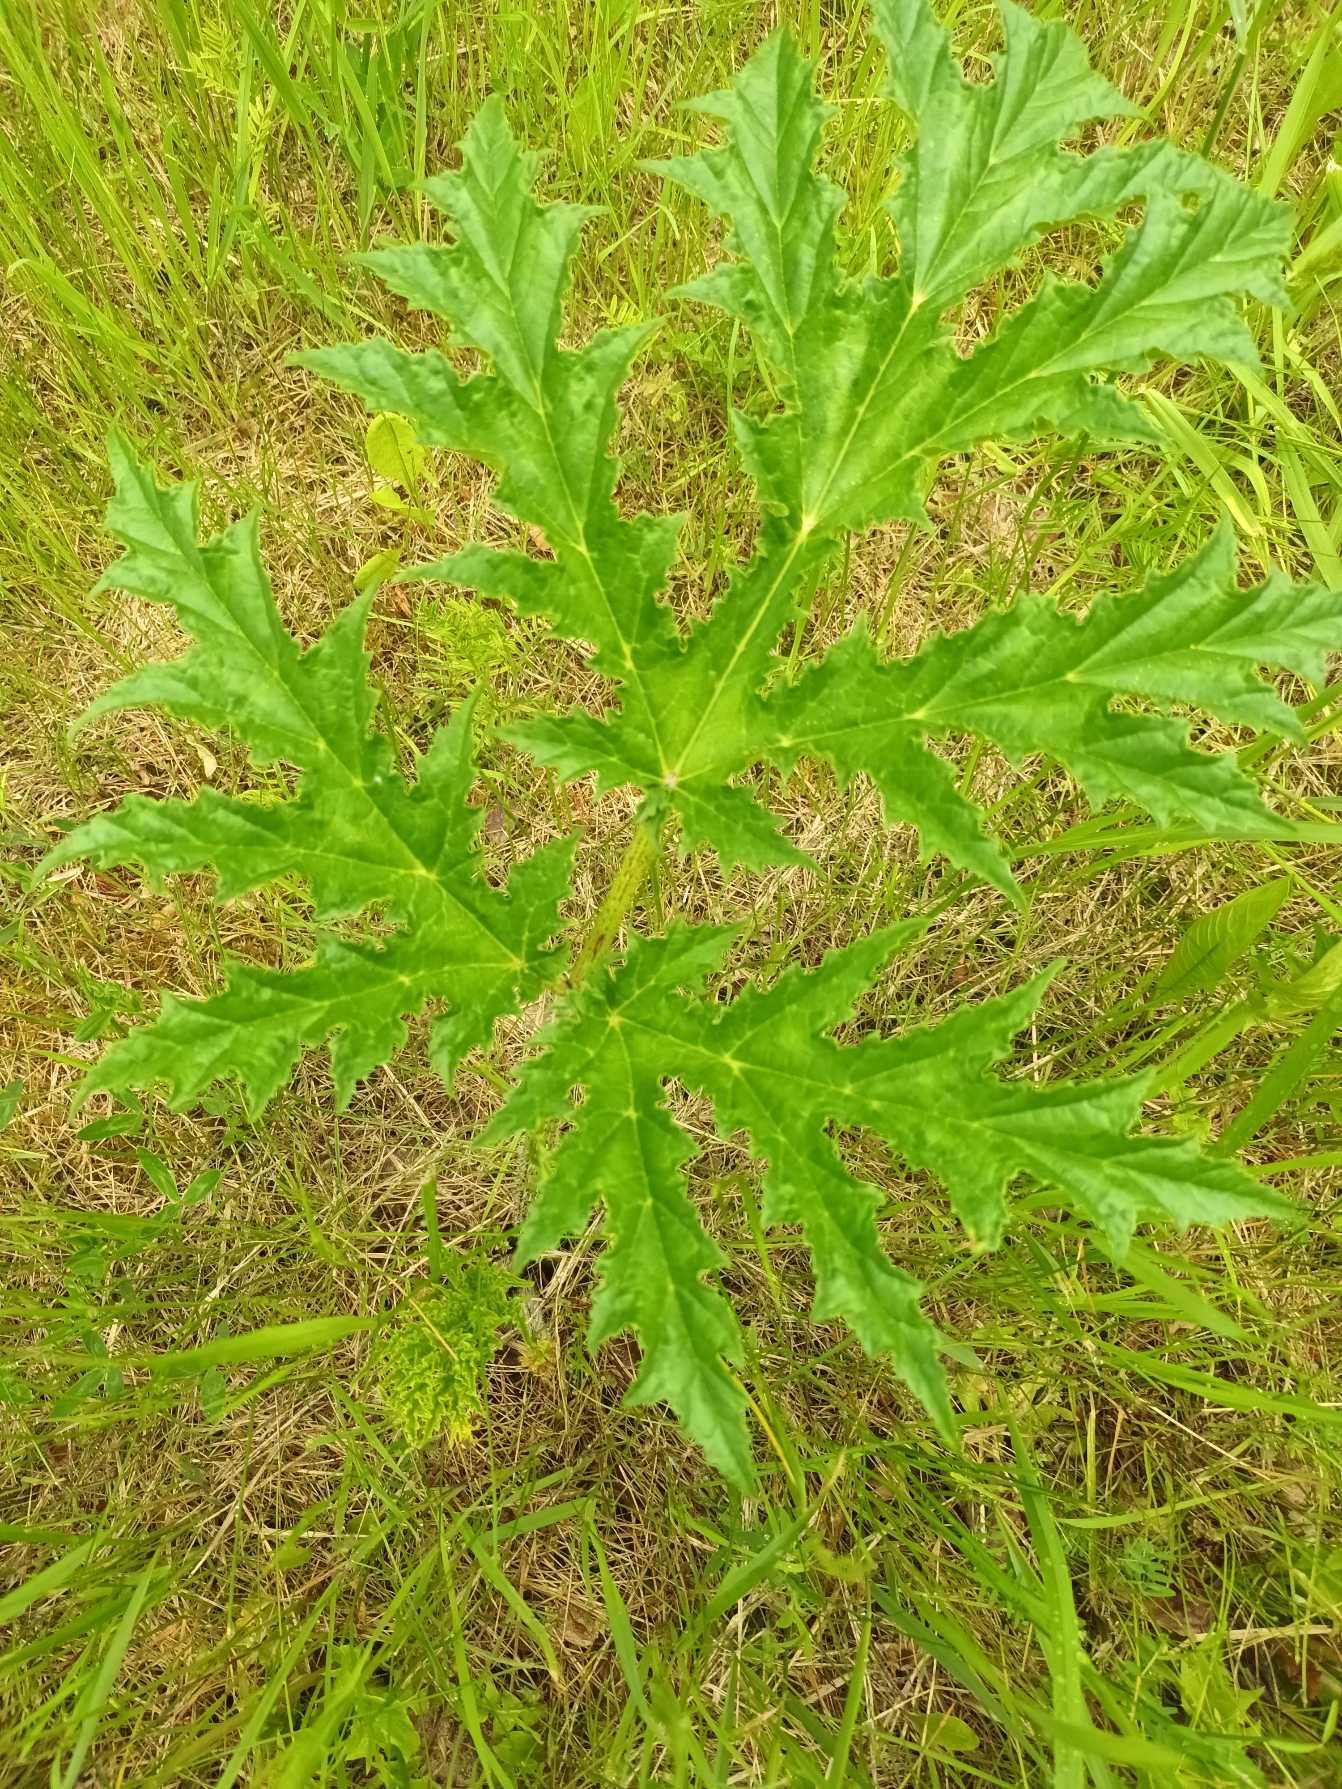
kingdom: Plantae
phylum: Tracheophyta
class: Magnoliopsida
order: Apiales
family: Apiaceae
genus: Heracleum
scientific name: Heracleum mantegazzianum
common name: Kæmpe-bjørneklo
